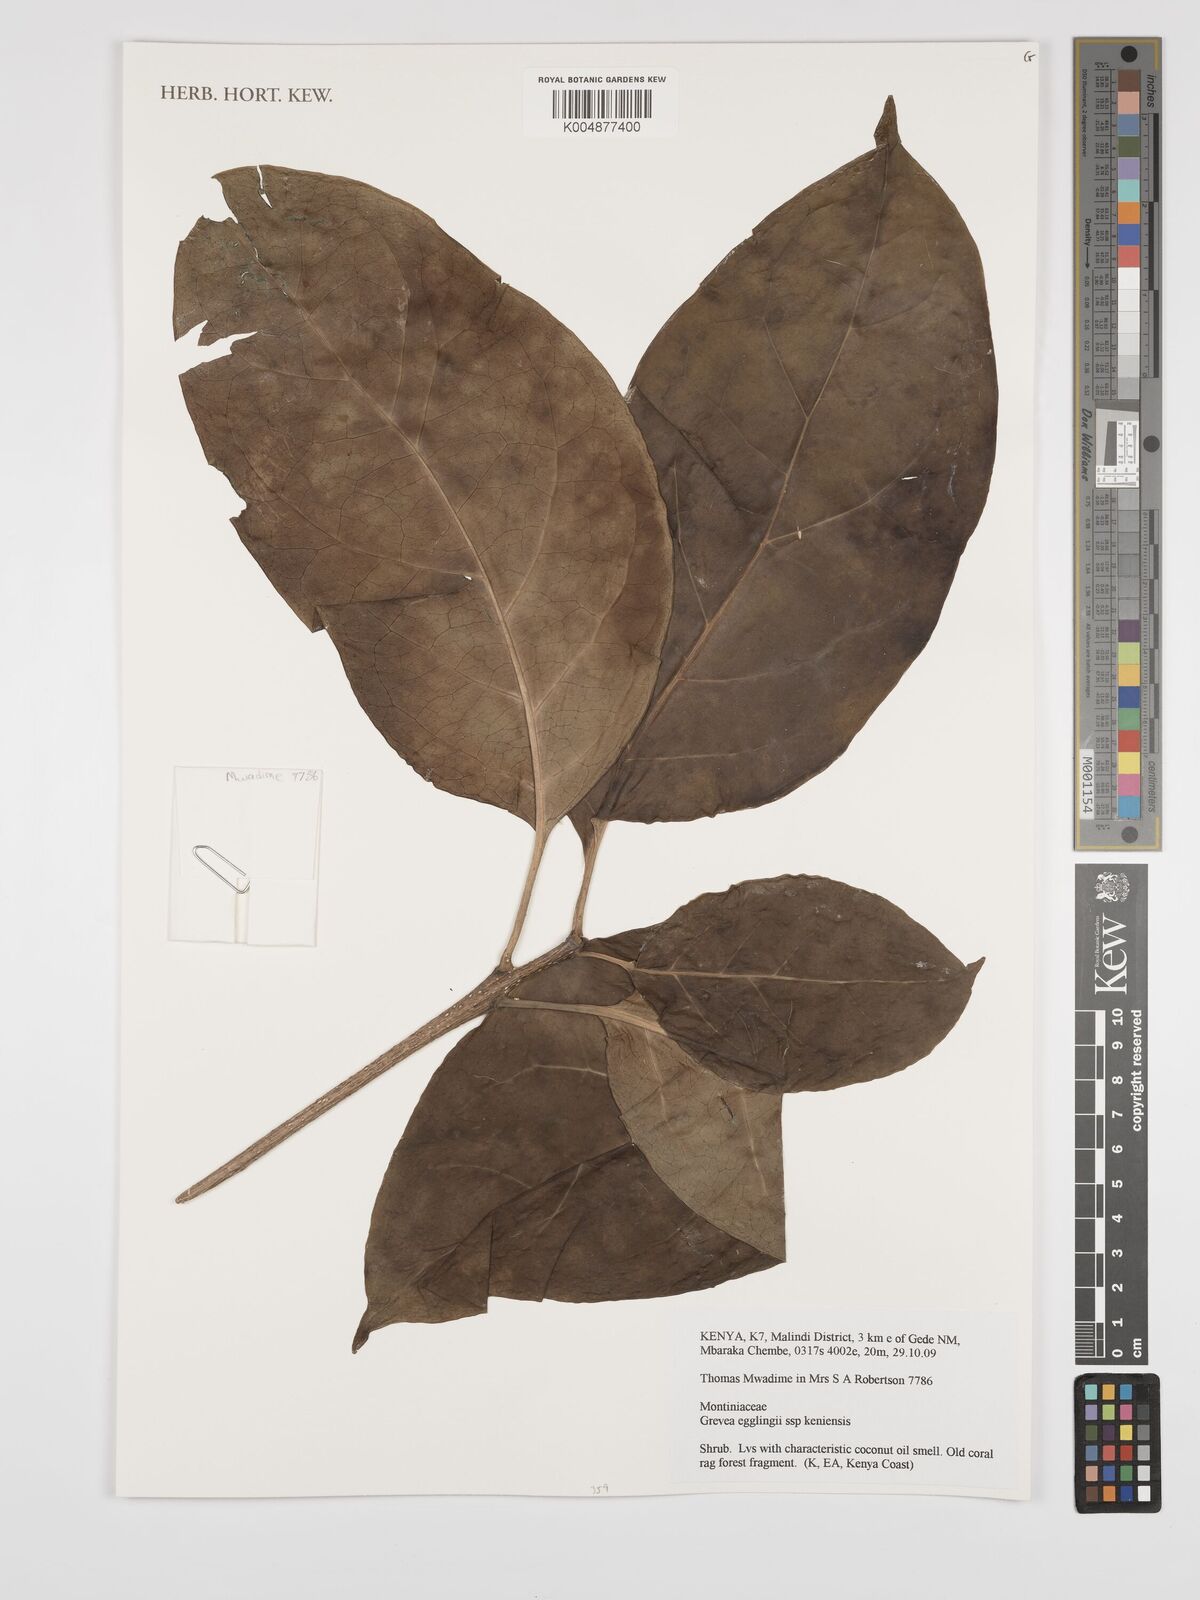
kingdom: Plantae
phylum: Tracheophyta
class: Magnoliopsida
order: Solanales
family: Montiniaceae
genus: Grevea
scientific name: Grevea eggelingii
